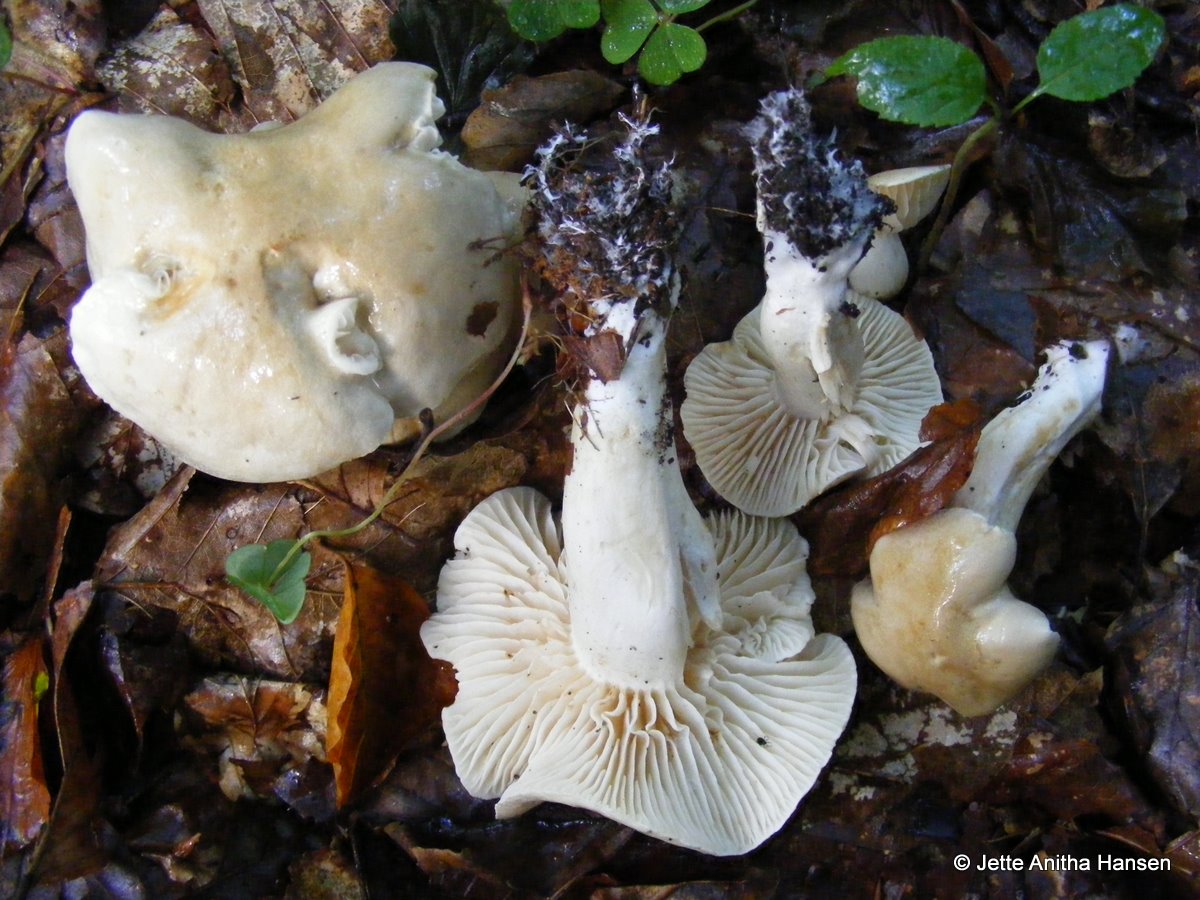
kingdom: Fungi
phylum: Basidiomycota
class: Agaricomycetes
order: Agaricales
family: Tricholomataceae
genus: Tricholoma
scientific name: Tricholoma lascivum
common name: stinkende ridderhat
